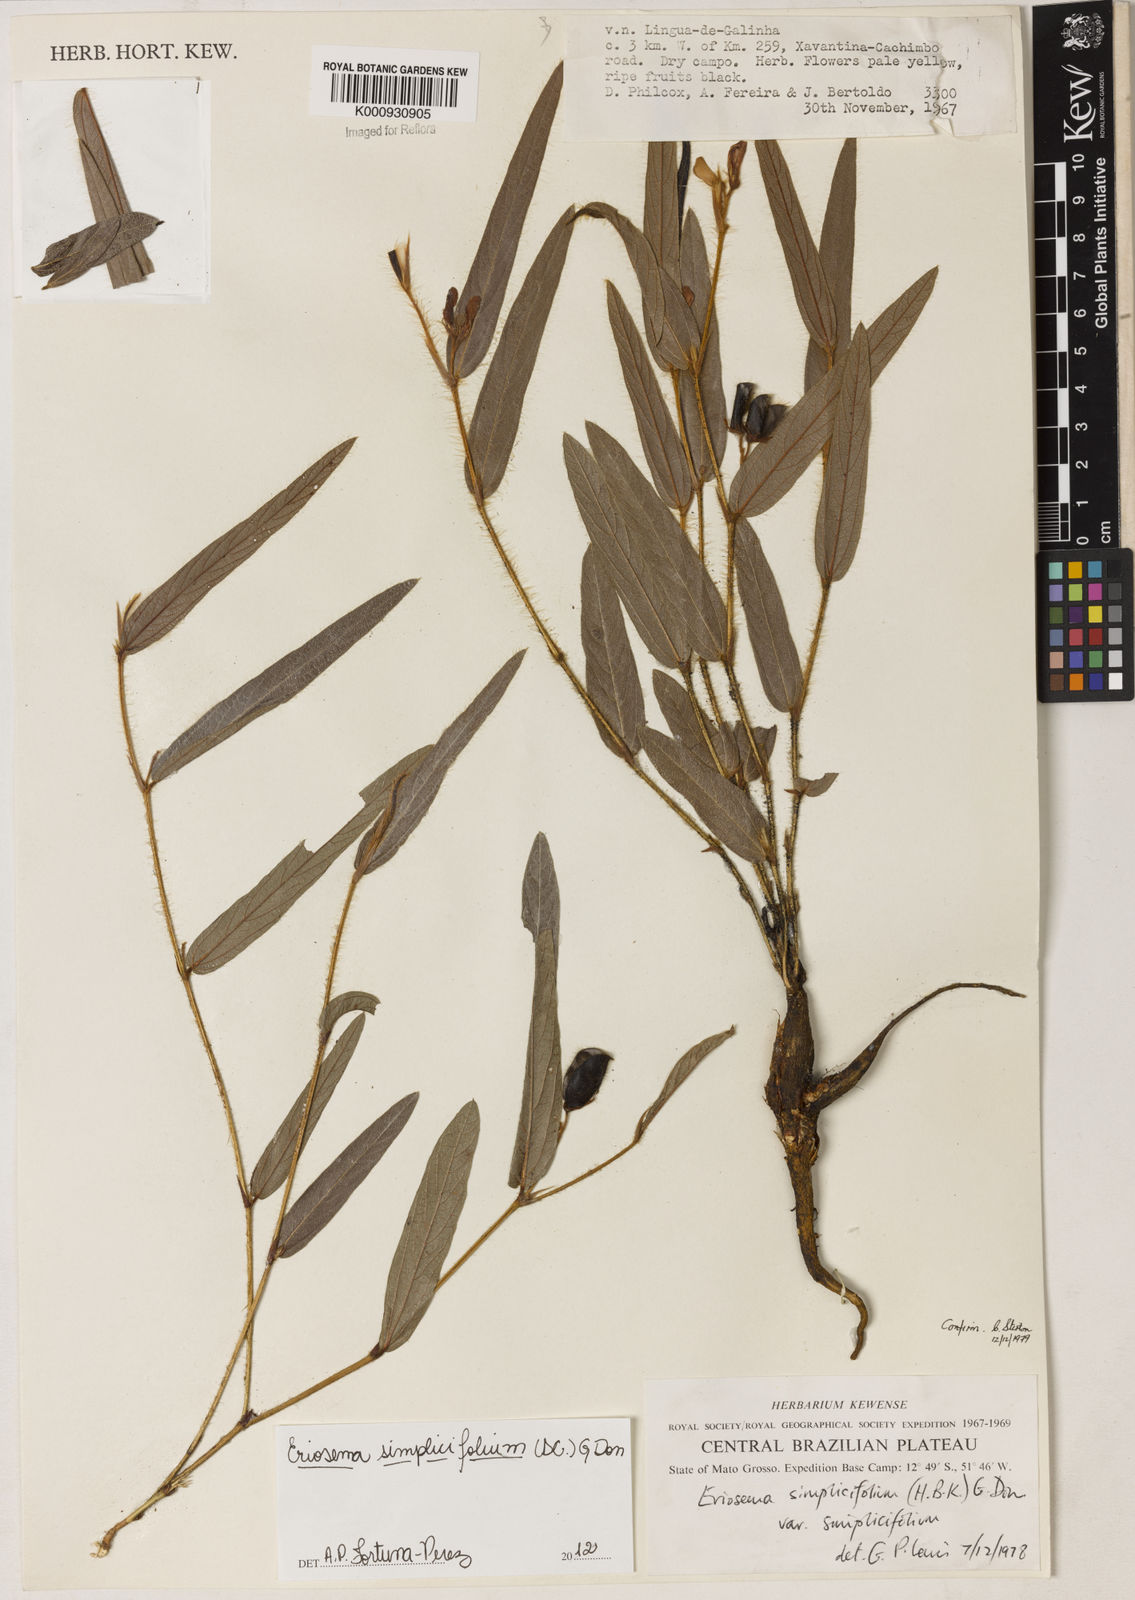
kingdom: Plantae
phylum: Tracheophyta
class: Magnoliopsida
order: Fabales
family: Fabaceae
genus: Eriosema
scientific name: Eriosema simplicifolium
